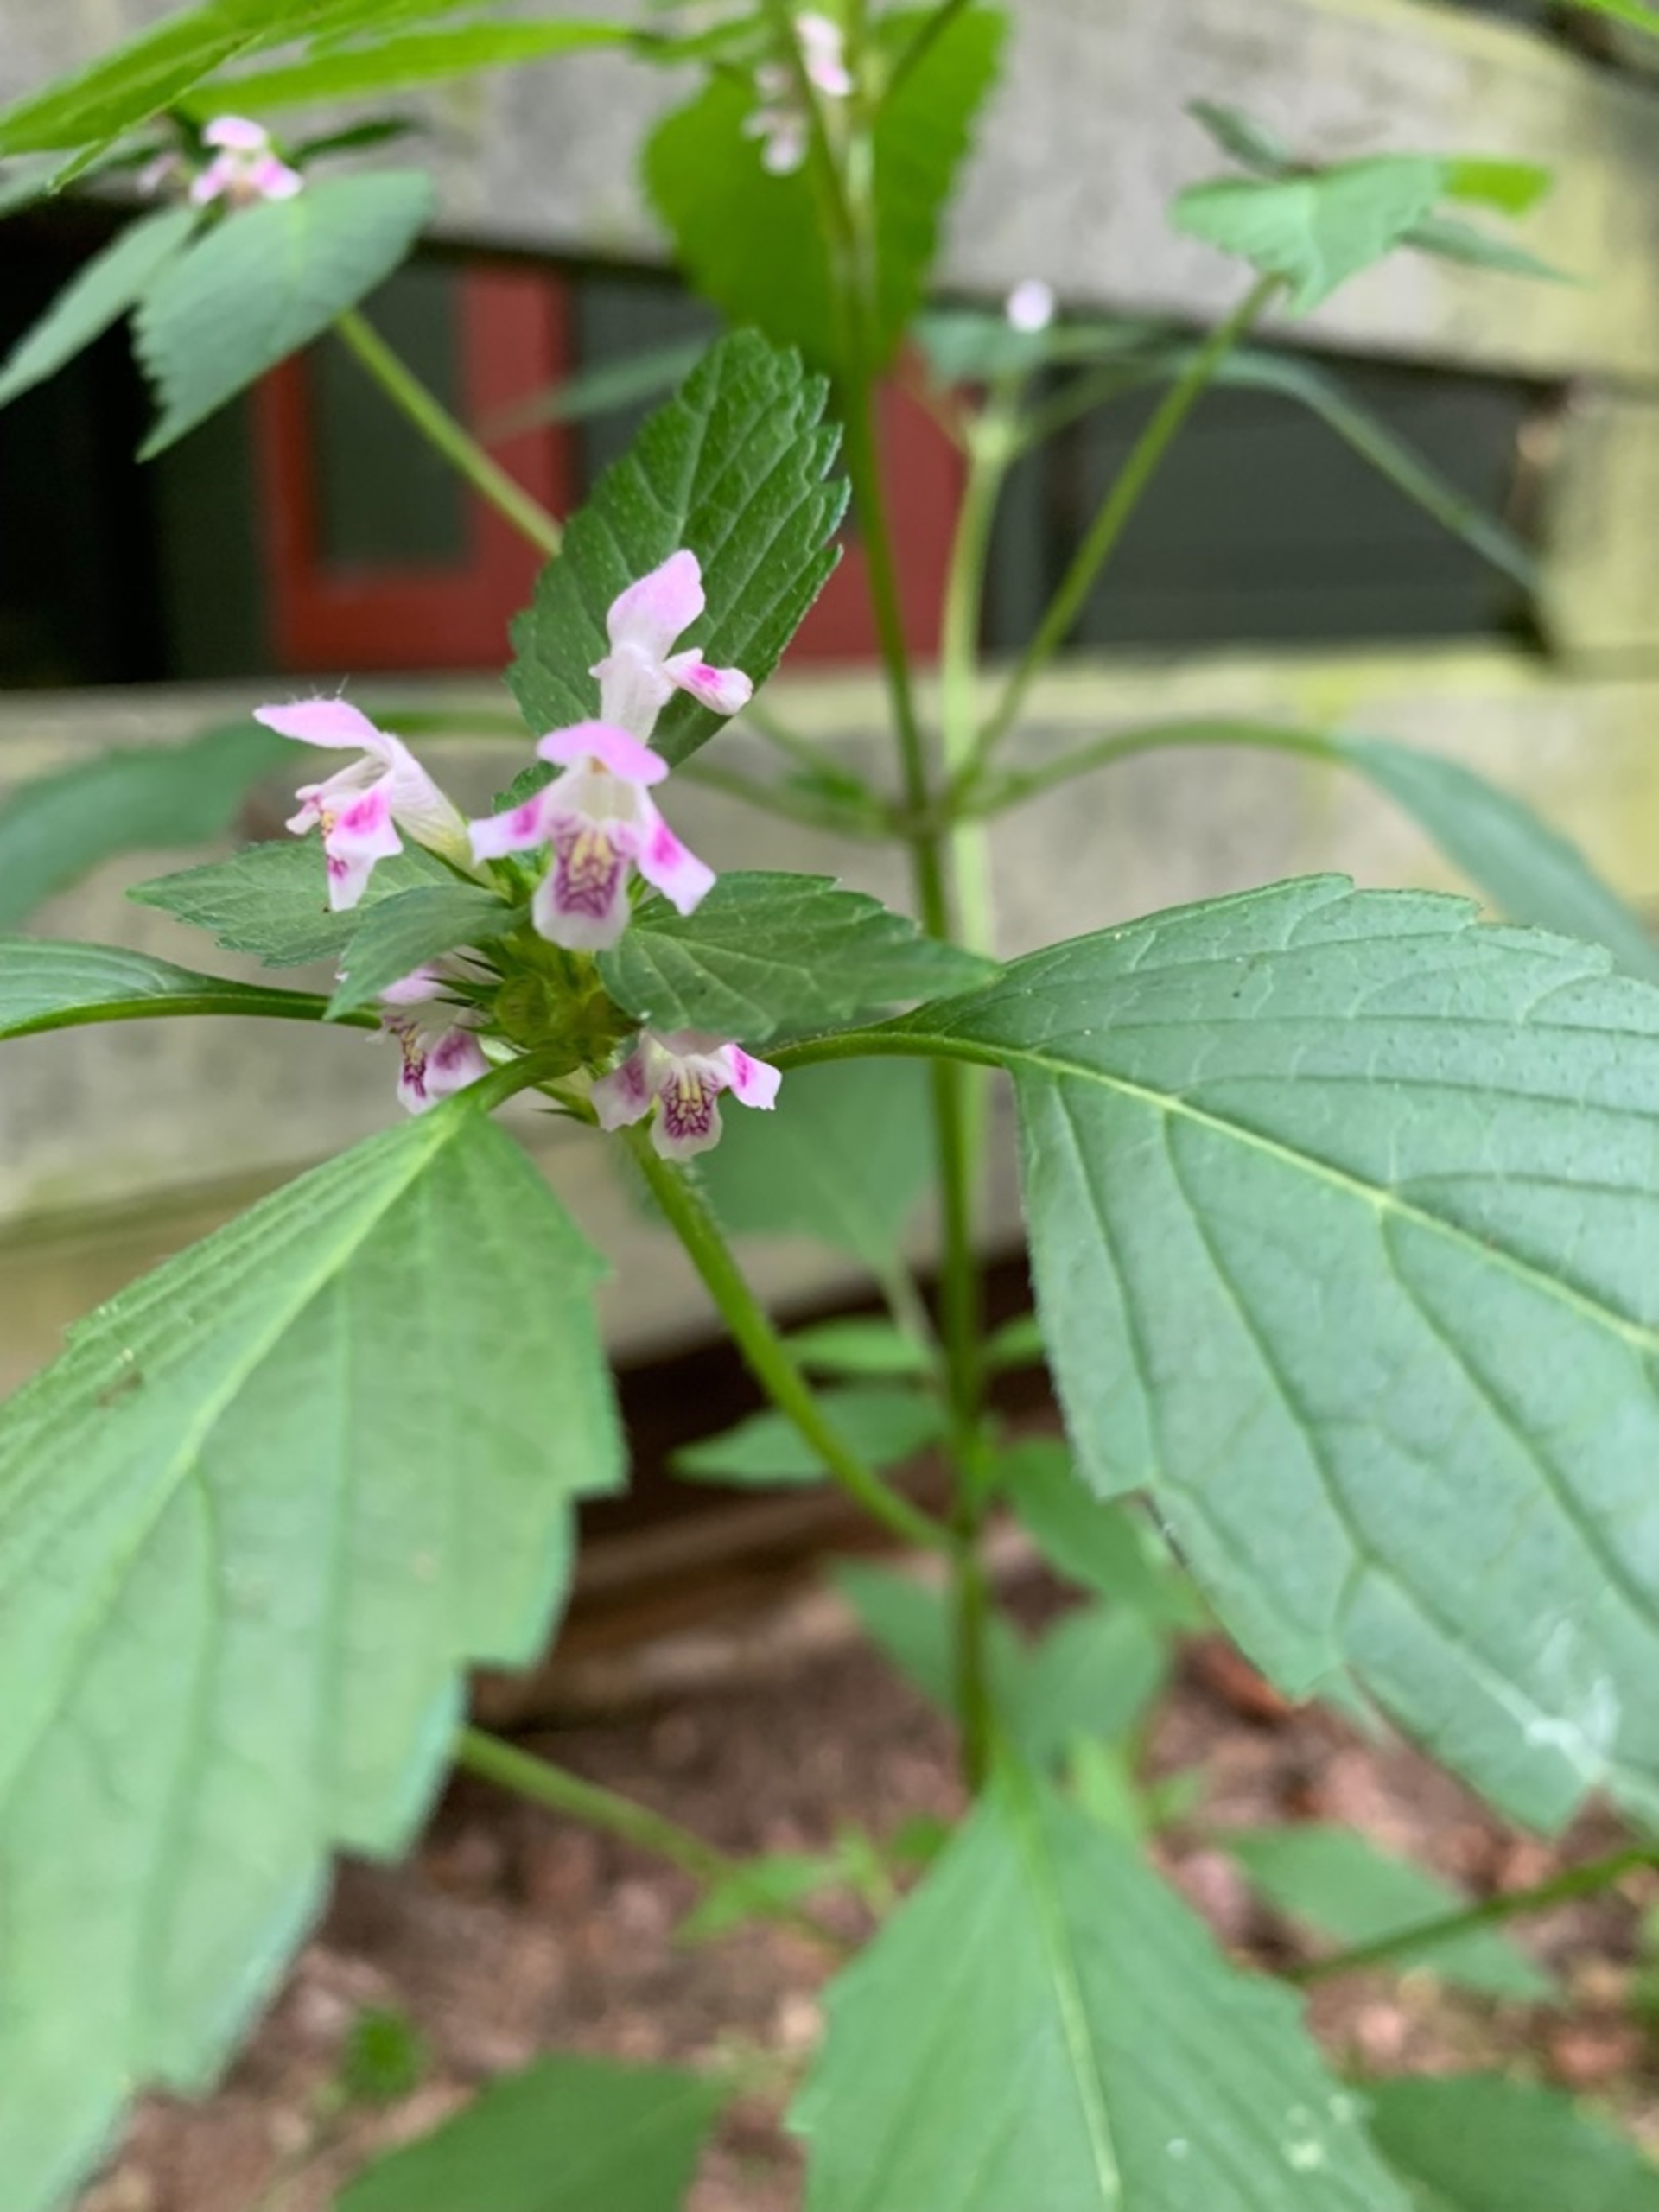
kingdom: Plantae
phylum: Tracheophyta
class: Magnoliopsida
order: Lamiales
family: Lamiaceae
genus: Galeopsis
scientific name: Galeopsis tetrahit
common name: Almindelig hanekro
